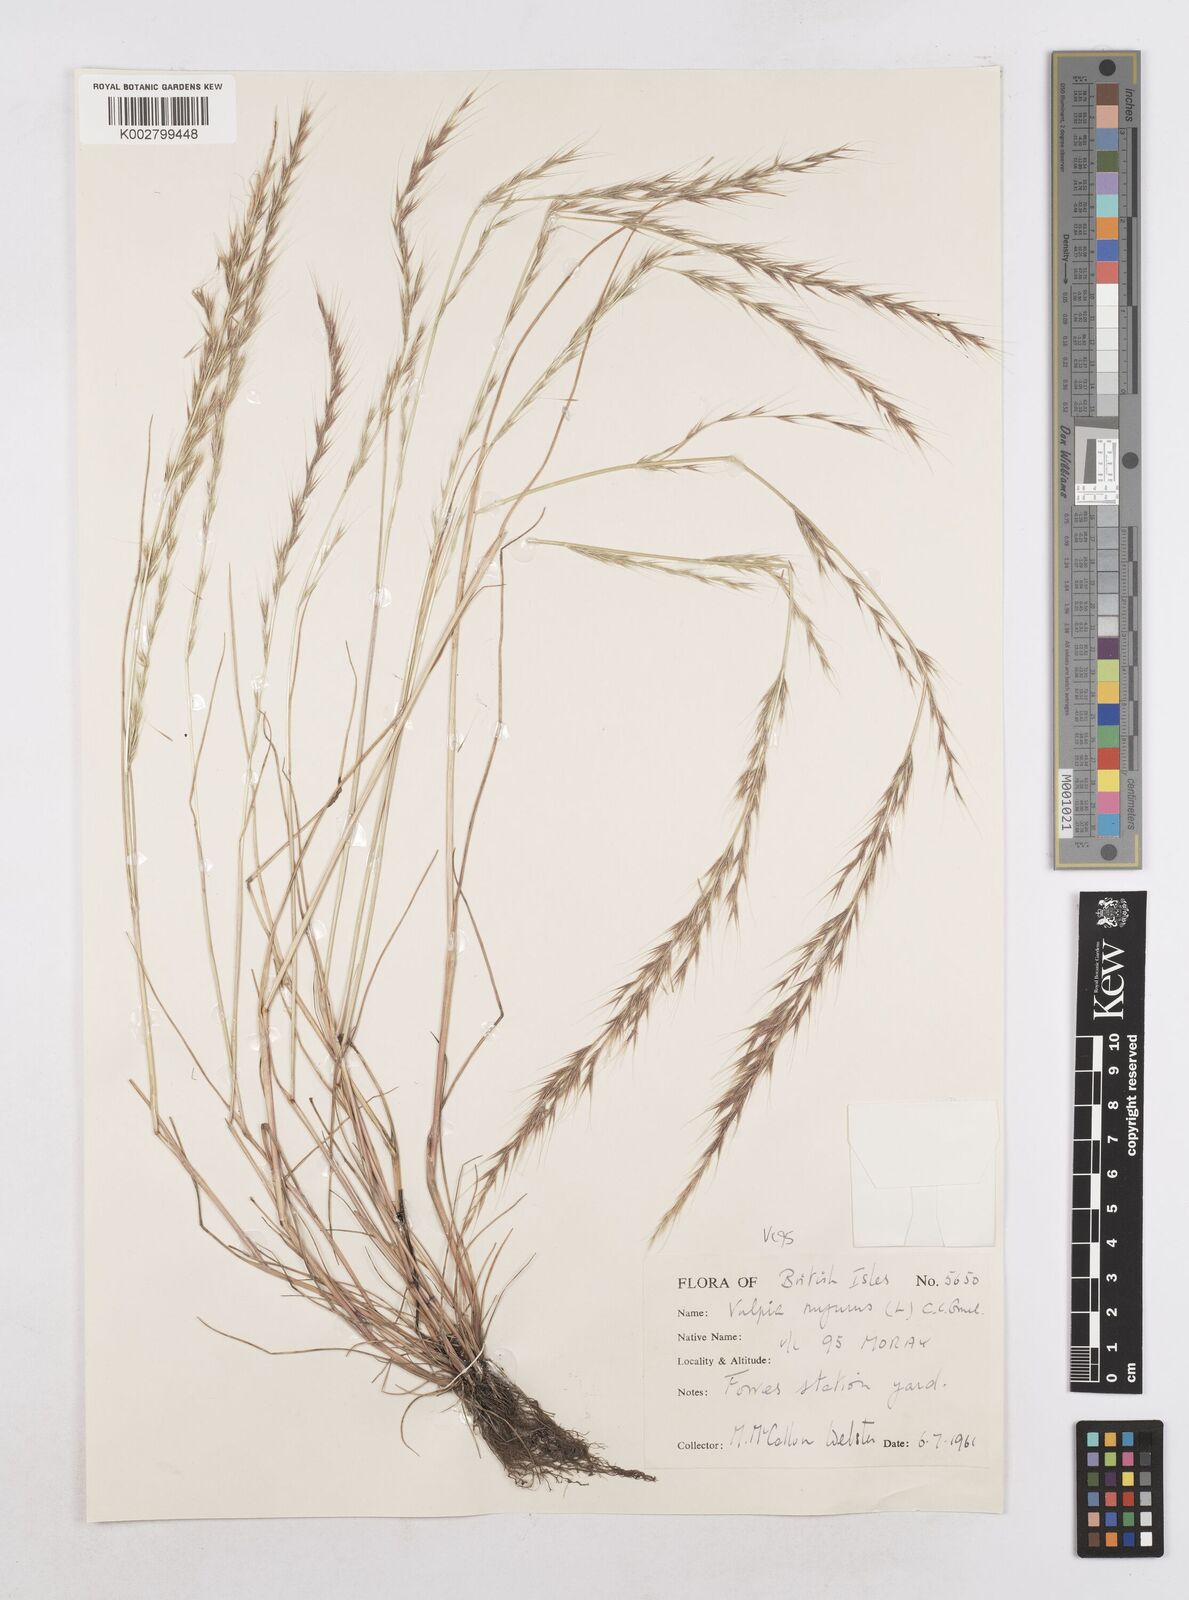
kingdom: Plantae
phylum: Tracheophyta
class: Liliopsida
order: Poales
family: Poaceae
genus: Festuca
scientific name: Festuca myuros
